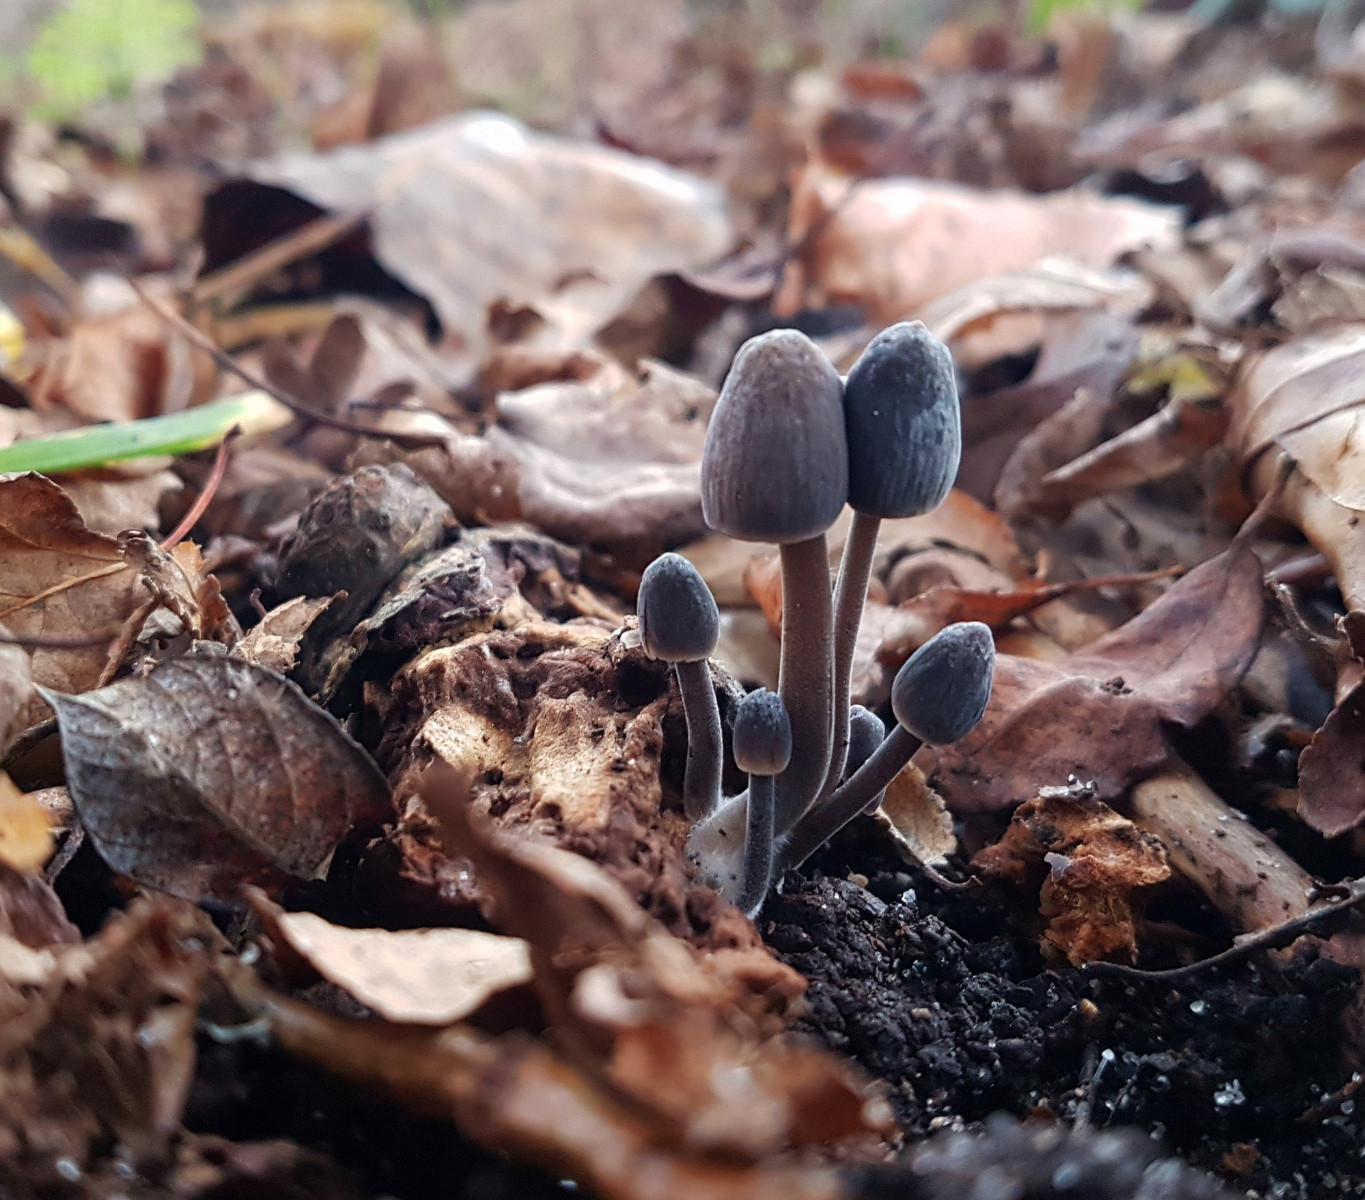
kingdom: Fungi
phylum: Basidiomycota
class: Agaricomycetes
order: Agaricales
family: Mycenaceae
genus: Mycena
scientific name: Mycena
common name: huesvamp
